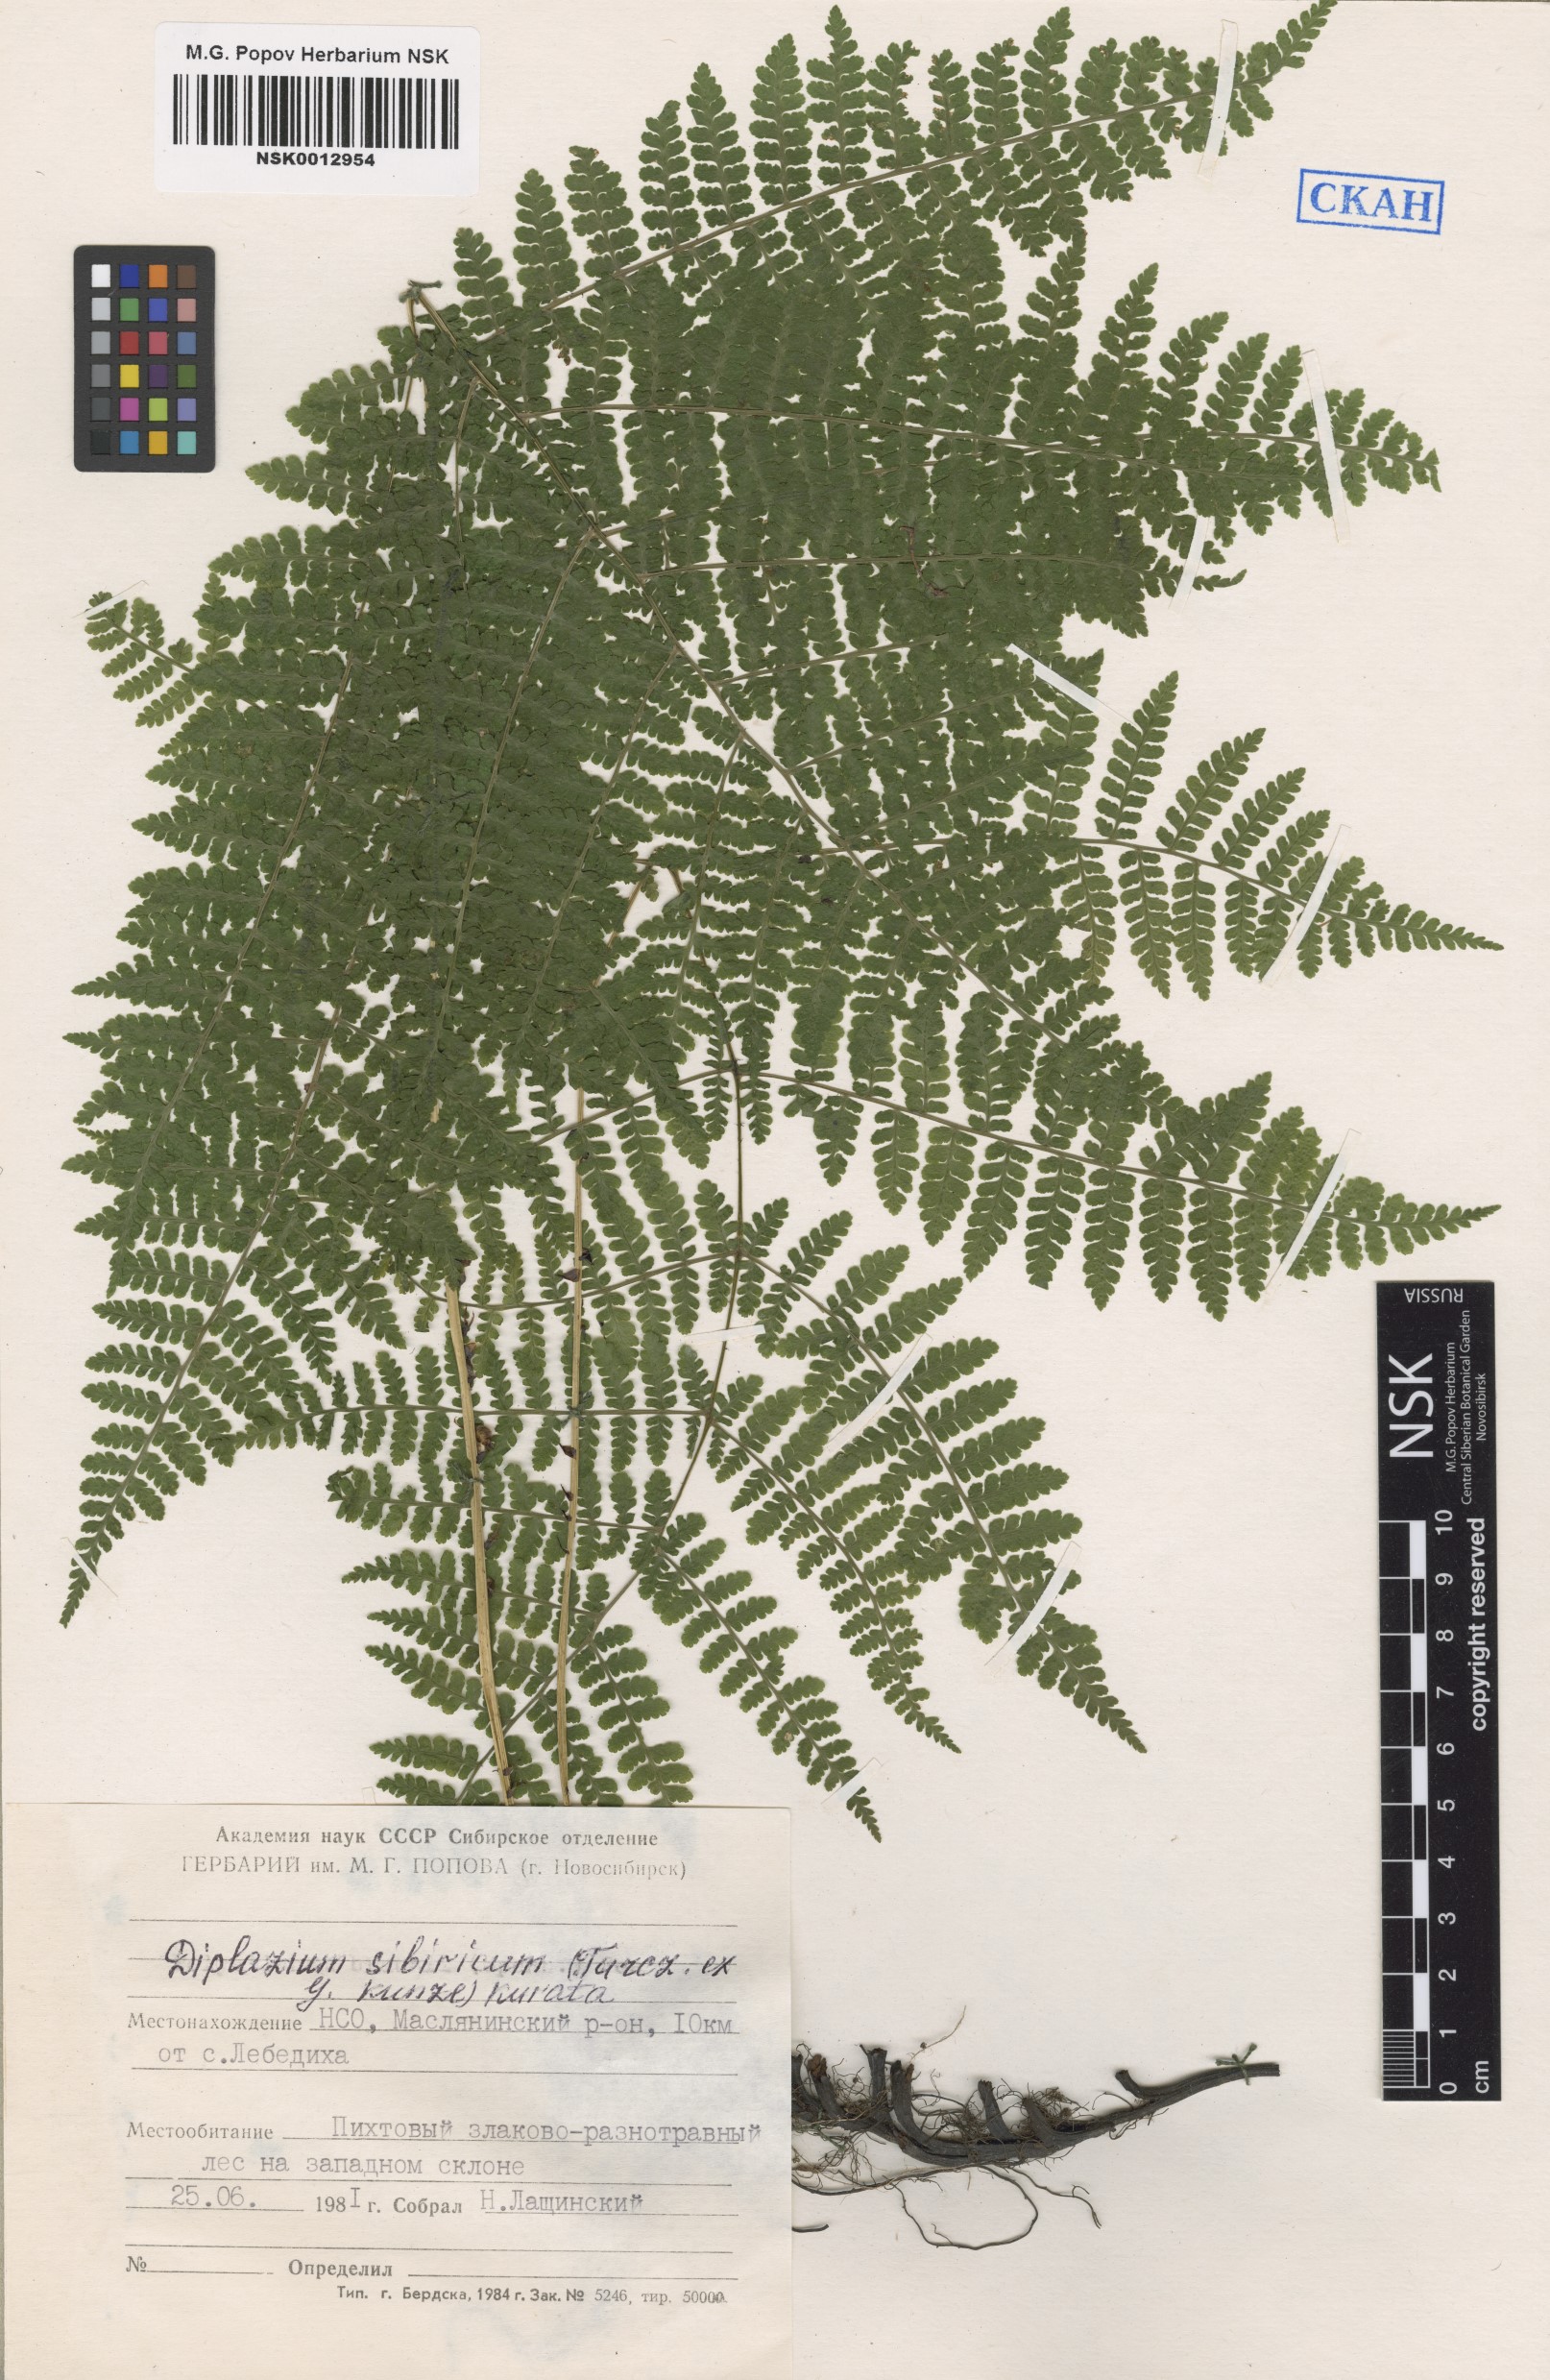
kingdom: Plantae
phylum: Tracheophyta
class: Polypodiopsida
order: Polypodiales
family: Athyriaceae
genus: Diplazium
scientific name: Diplazium sibiricum
